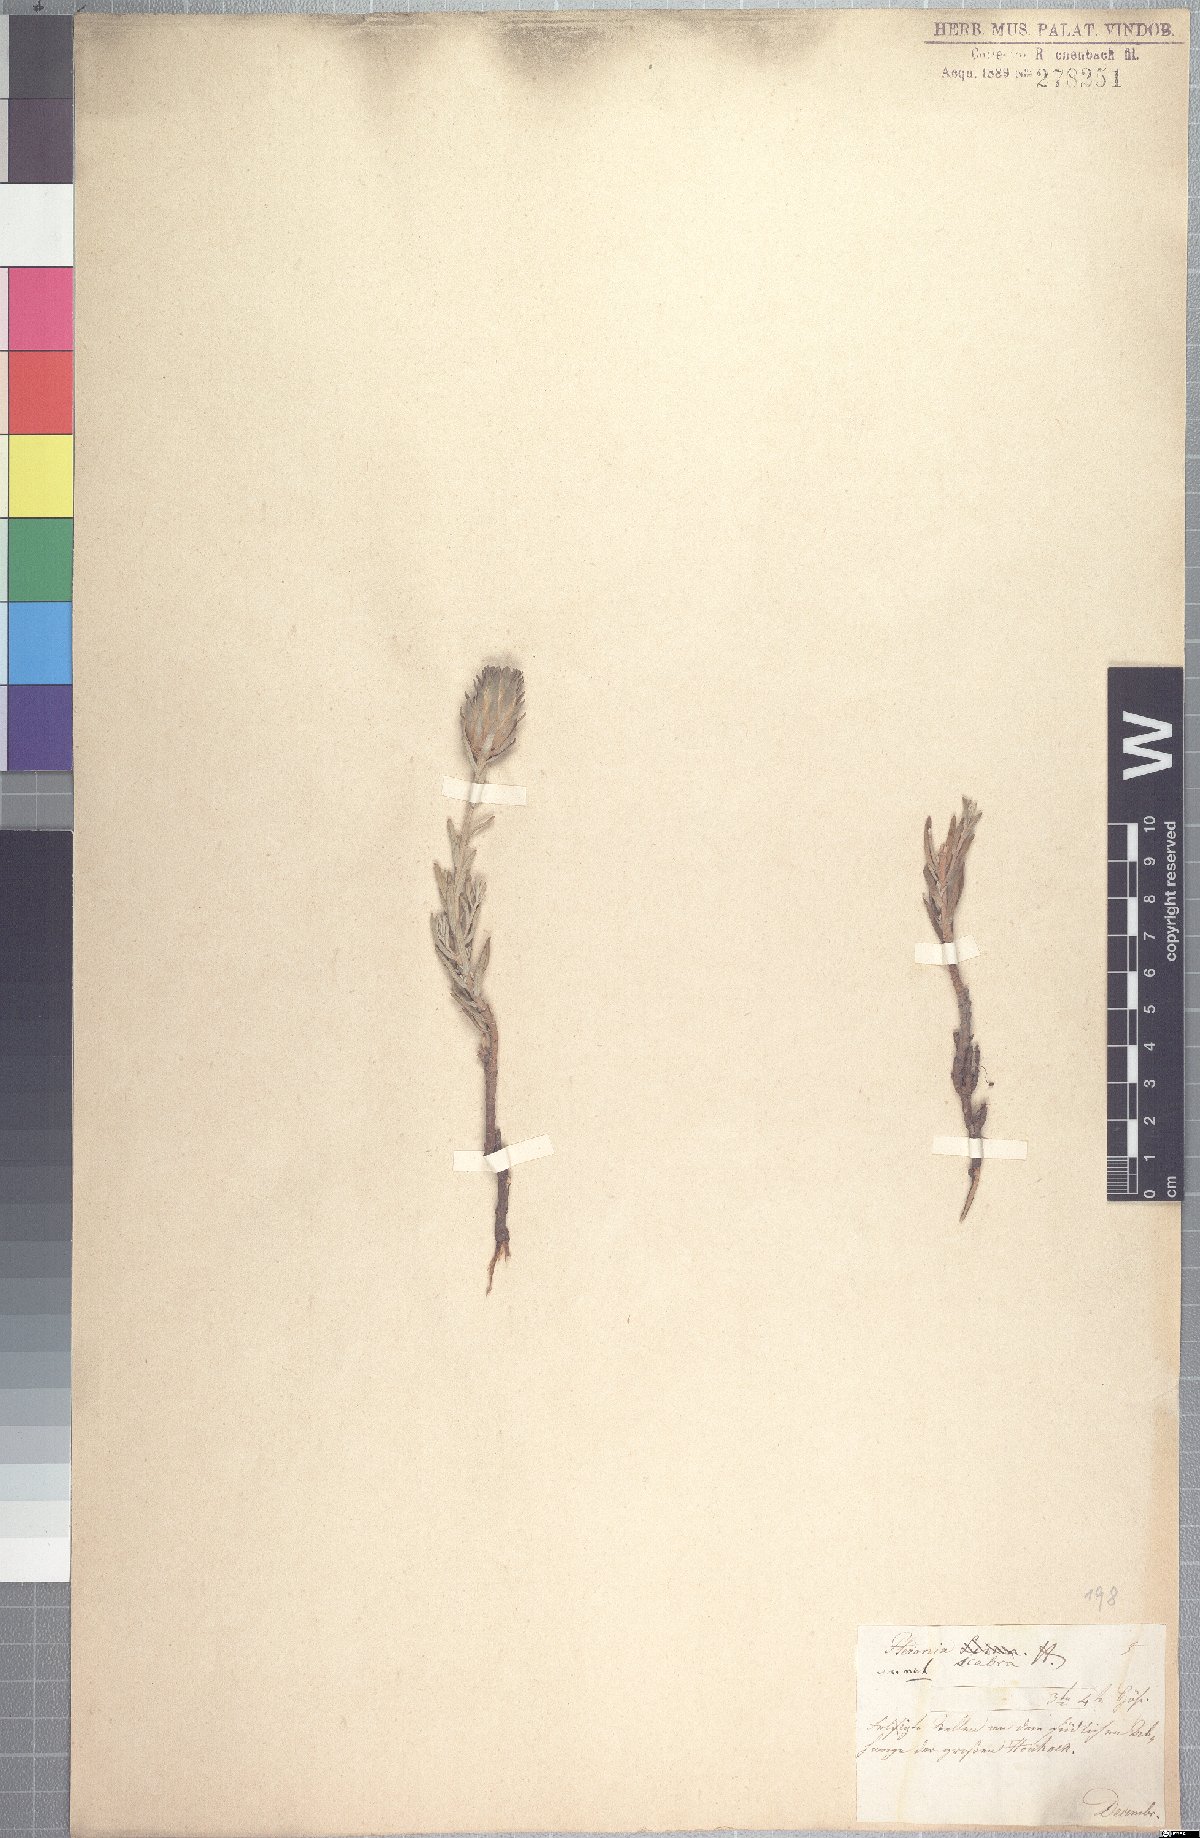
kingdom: Plantae
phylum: Tracheophyta
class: Magnoliopsida
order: Asterales
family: Asteraceae
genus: Pteronia
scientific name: Pteronia scabra
